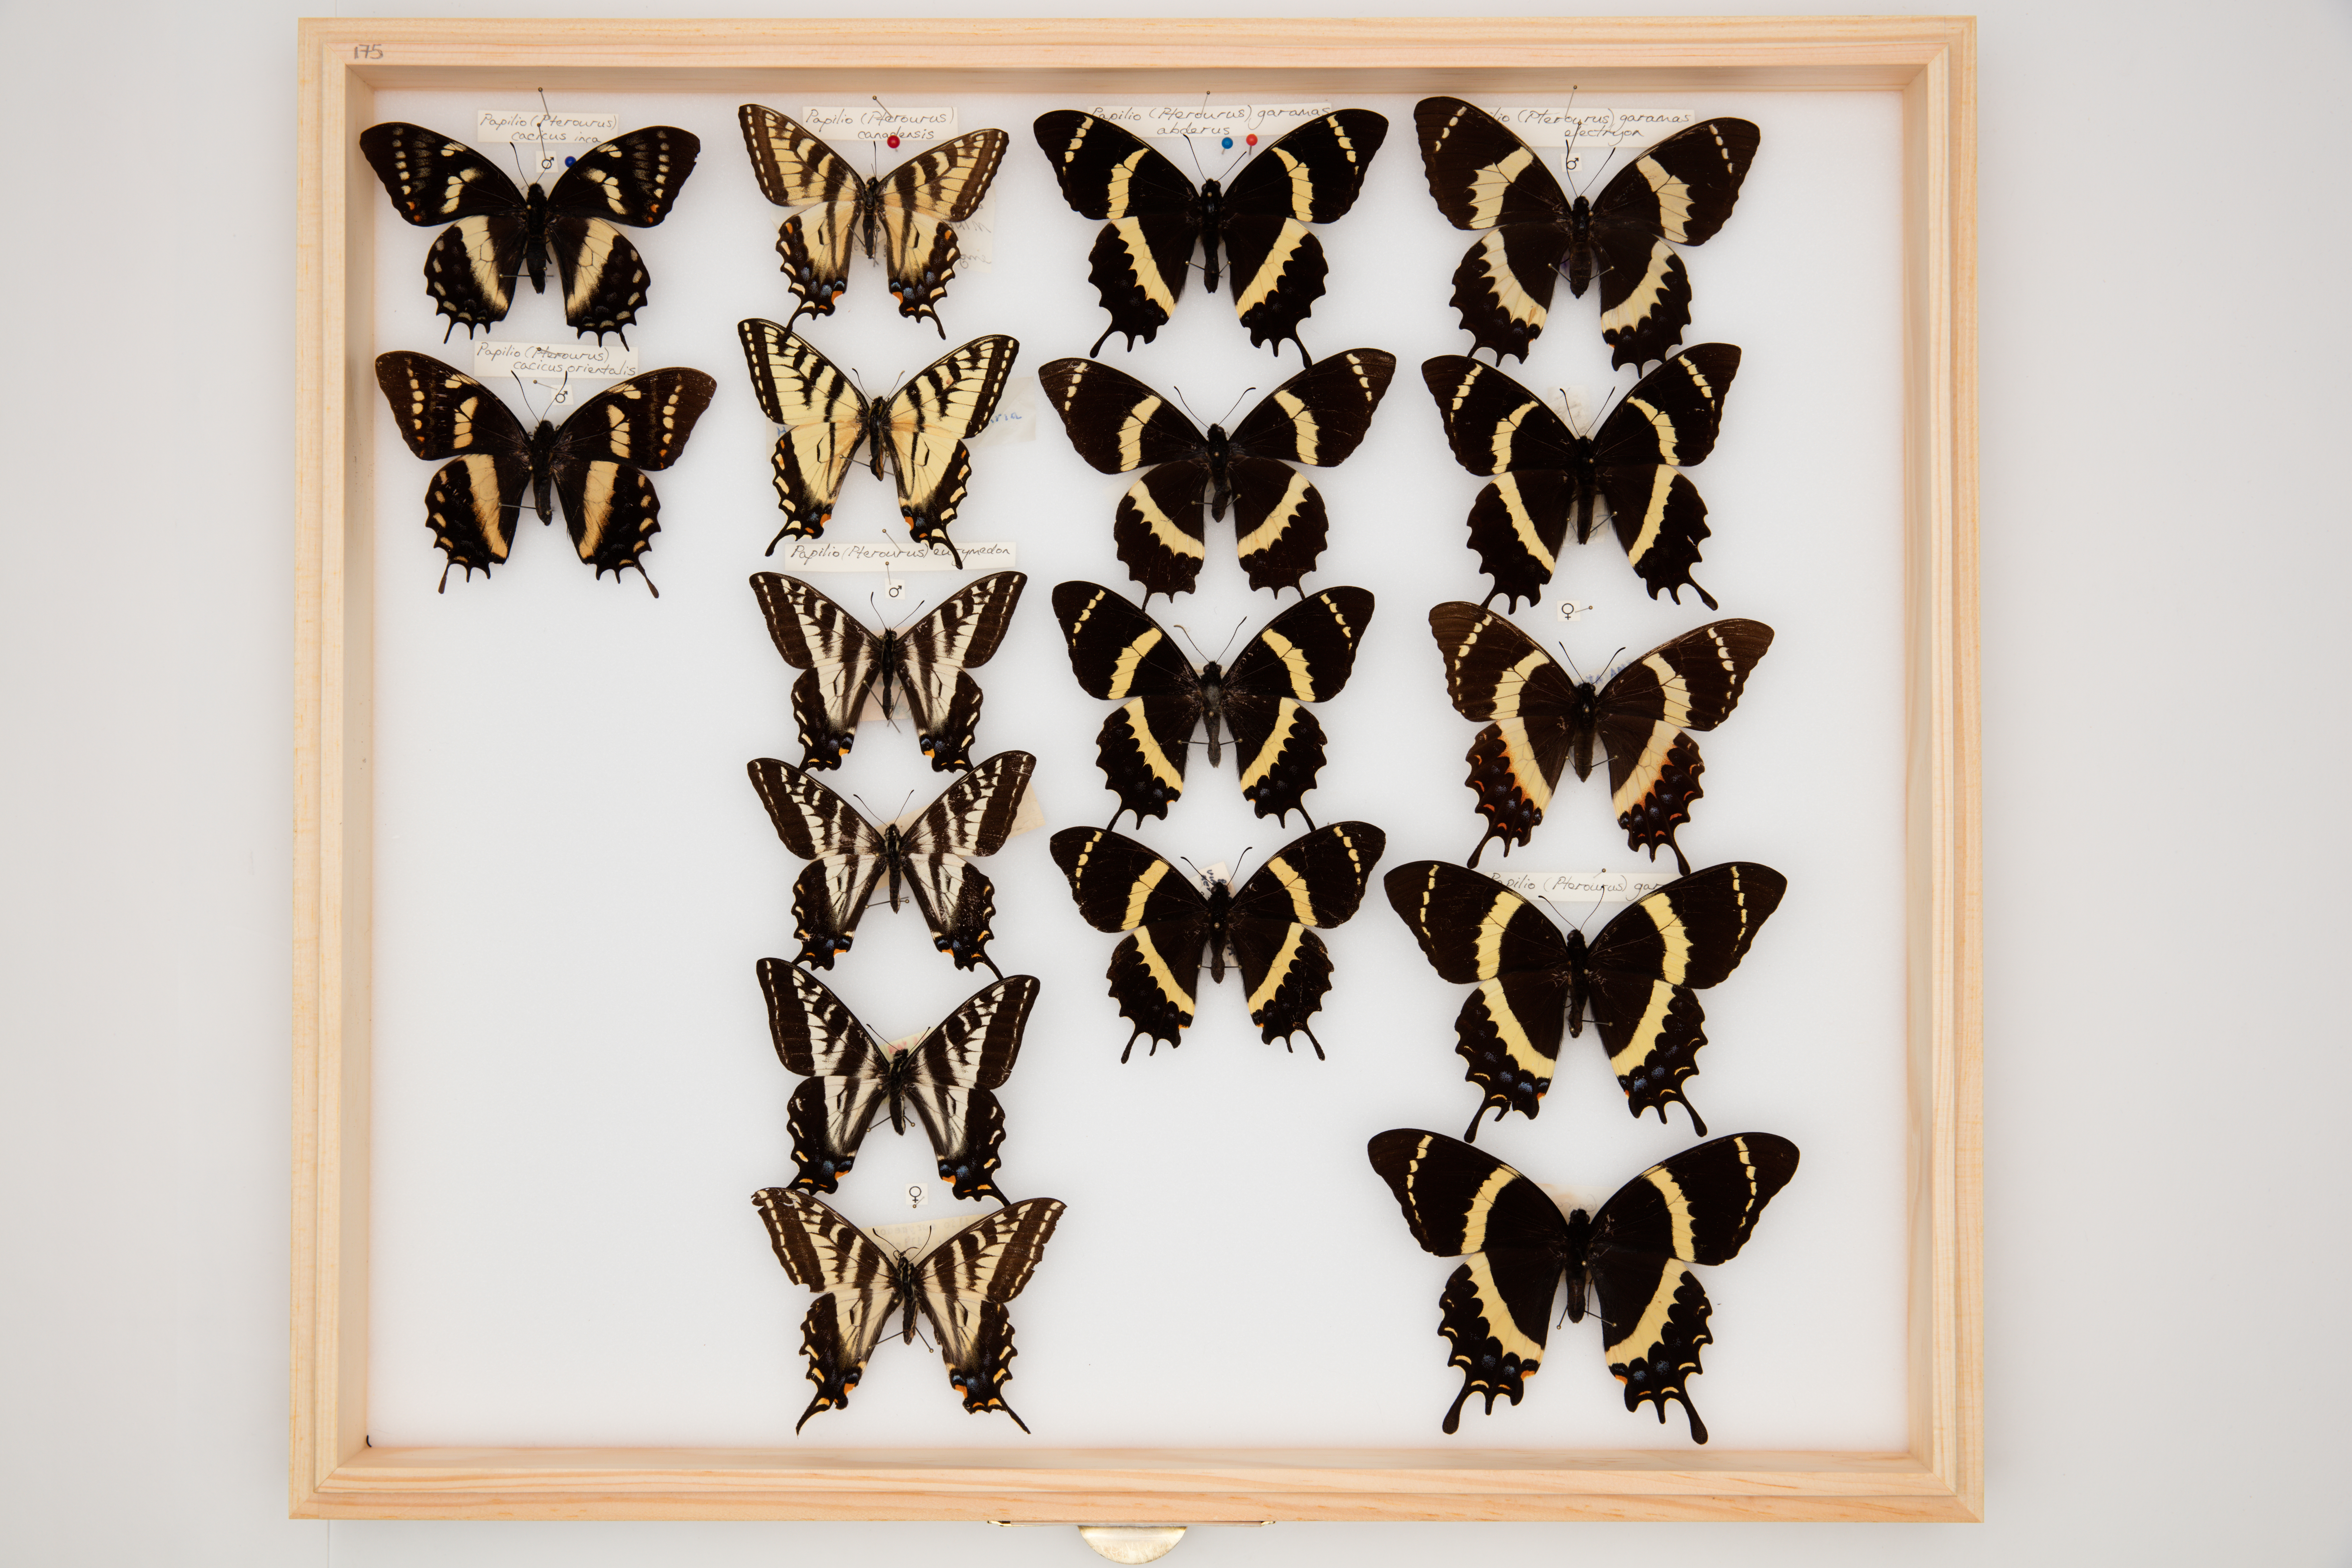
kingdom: Animalia
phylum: Arthropoda
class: Insecta
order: Lepidoptera
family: Papilionidae
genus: Papilio
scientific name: Papilio garamas
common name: Magnificent swallowtail
